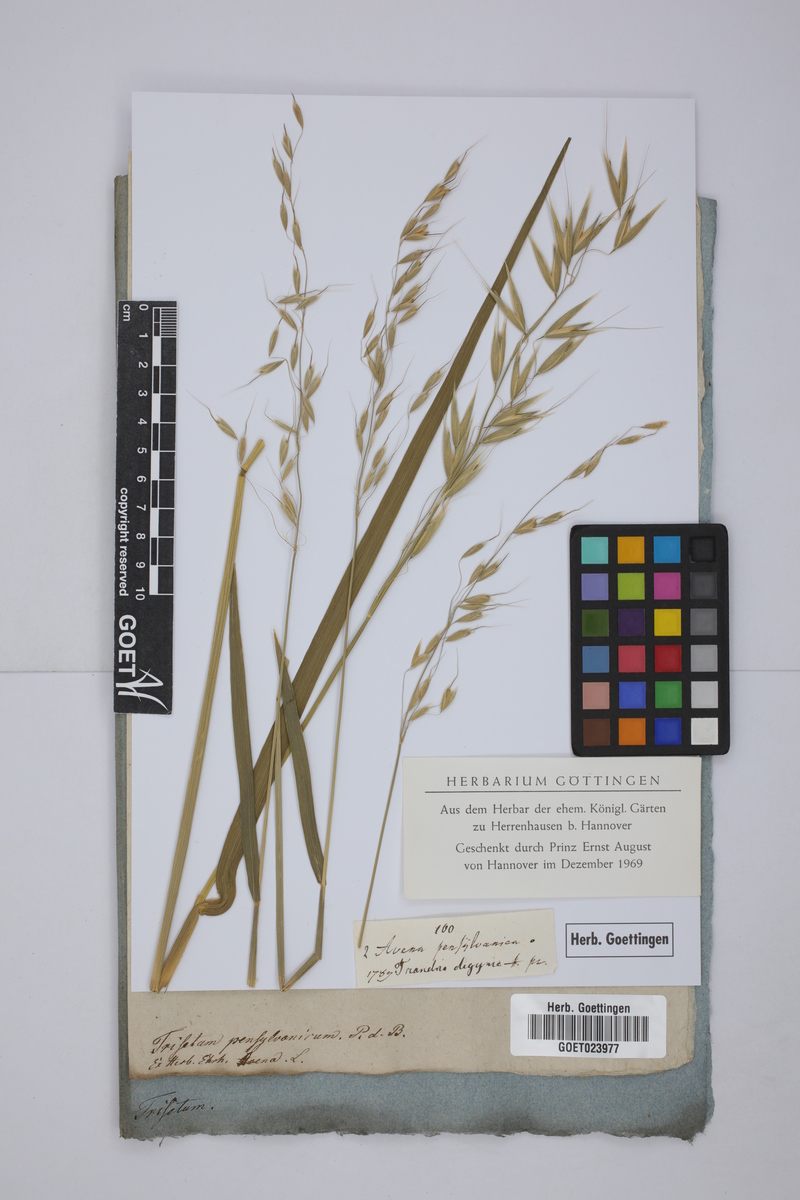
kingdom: Plantae
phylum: Tracheophyta
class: Liliopsida
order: Poales
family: Poaceae
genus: Sphenopholis
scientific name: Sphenopholis pensylvanica
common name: Swamp oats
